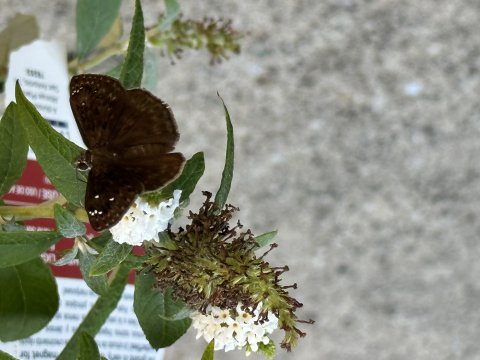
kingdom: Animalia
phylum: Arthropoda
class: Insecta
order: Lepidoptera
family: Hesperiidae
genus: Gesta
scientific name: Gesta
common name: Horace's Duskywing
